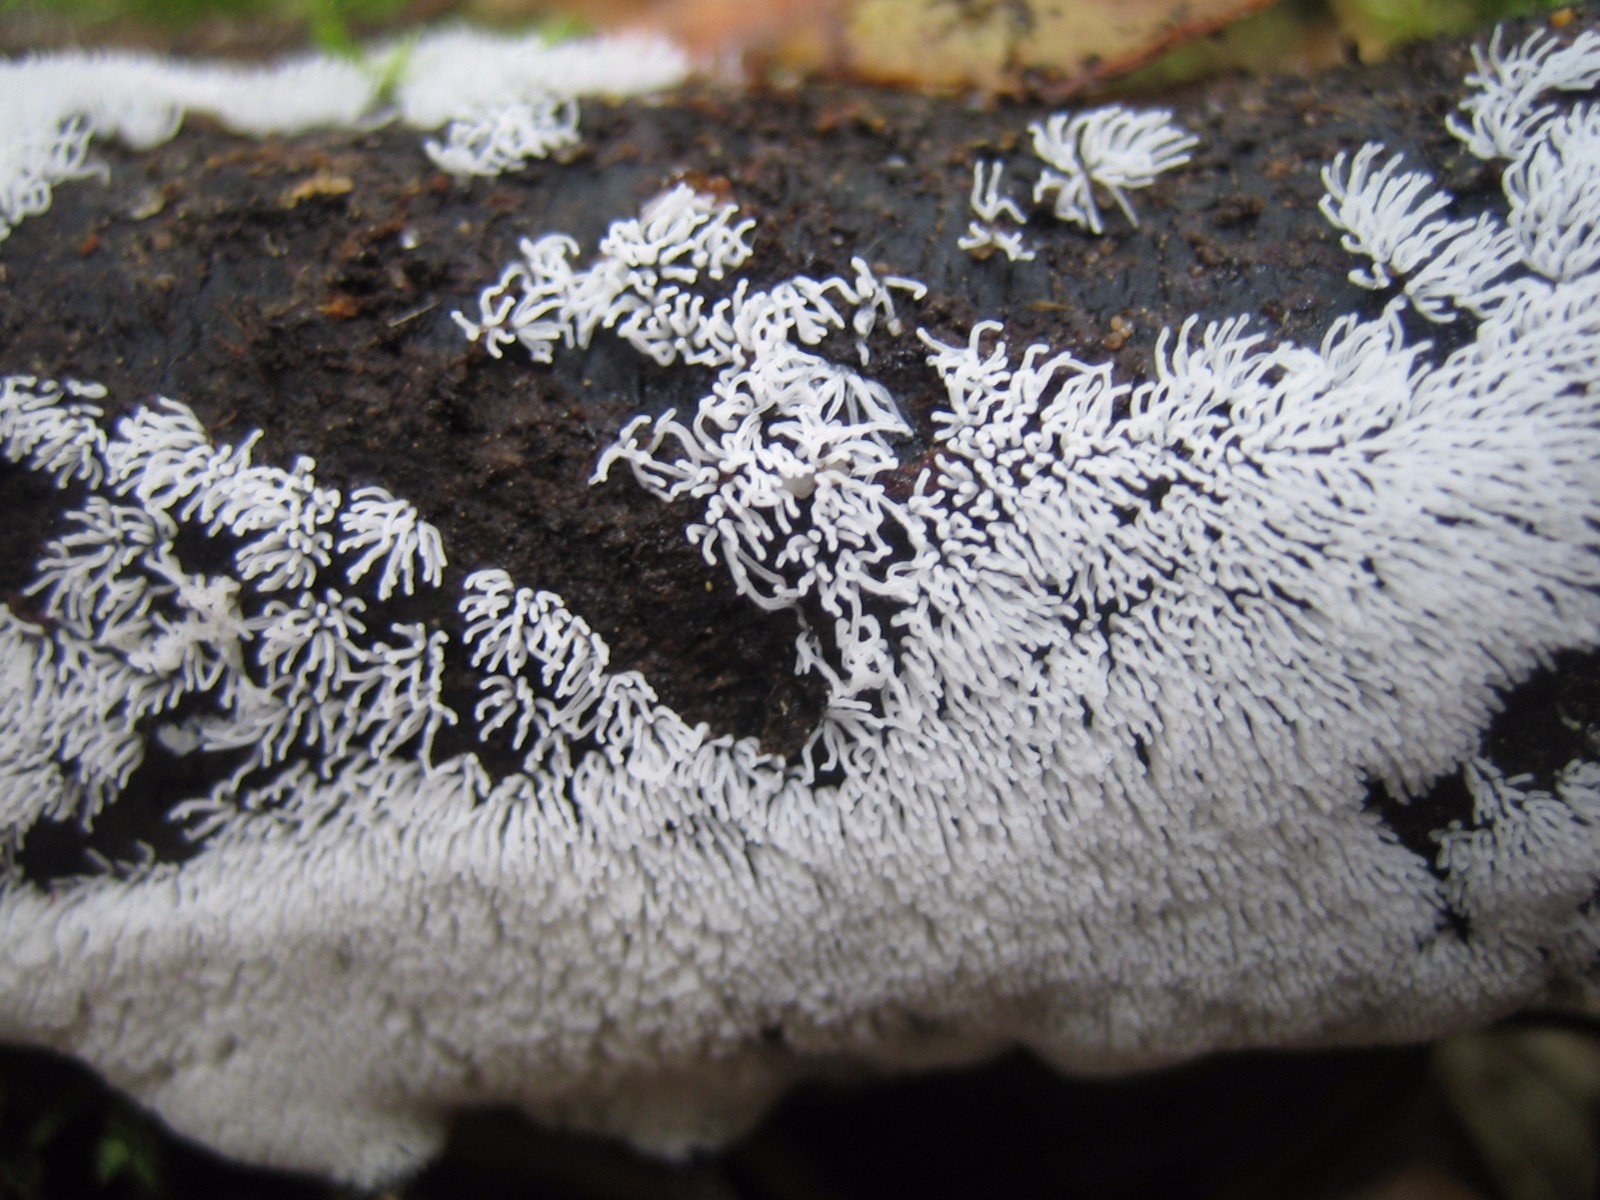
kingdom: Protozoa
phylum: Mycetozoa
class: Protosteliomycetes
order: Ceratiomyxales
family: Ceratiomyxaceae
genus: Ceratiomyxa
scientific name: Ceratiomyxa fruticulosa
